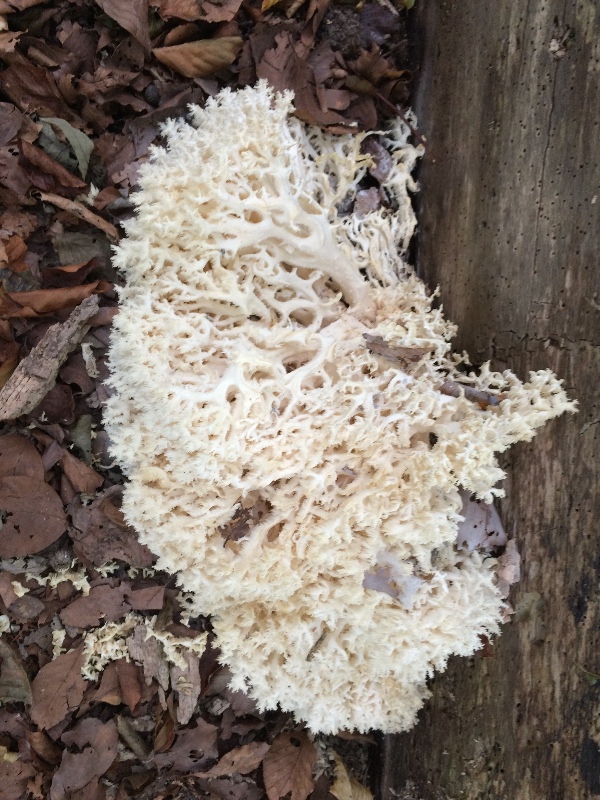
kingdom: Fungi
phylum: Basidiomycota
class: Agaricomycetes
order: Russulales
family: Hericiaceae
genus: Hericium
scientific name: Hericium coralloides
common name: koralpigsvamp
